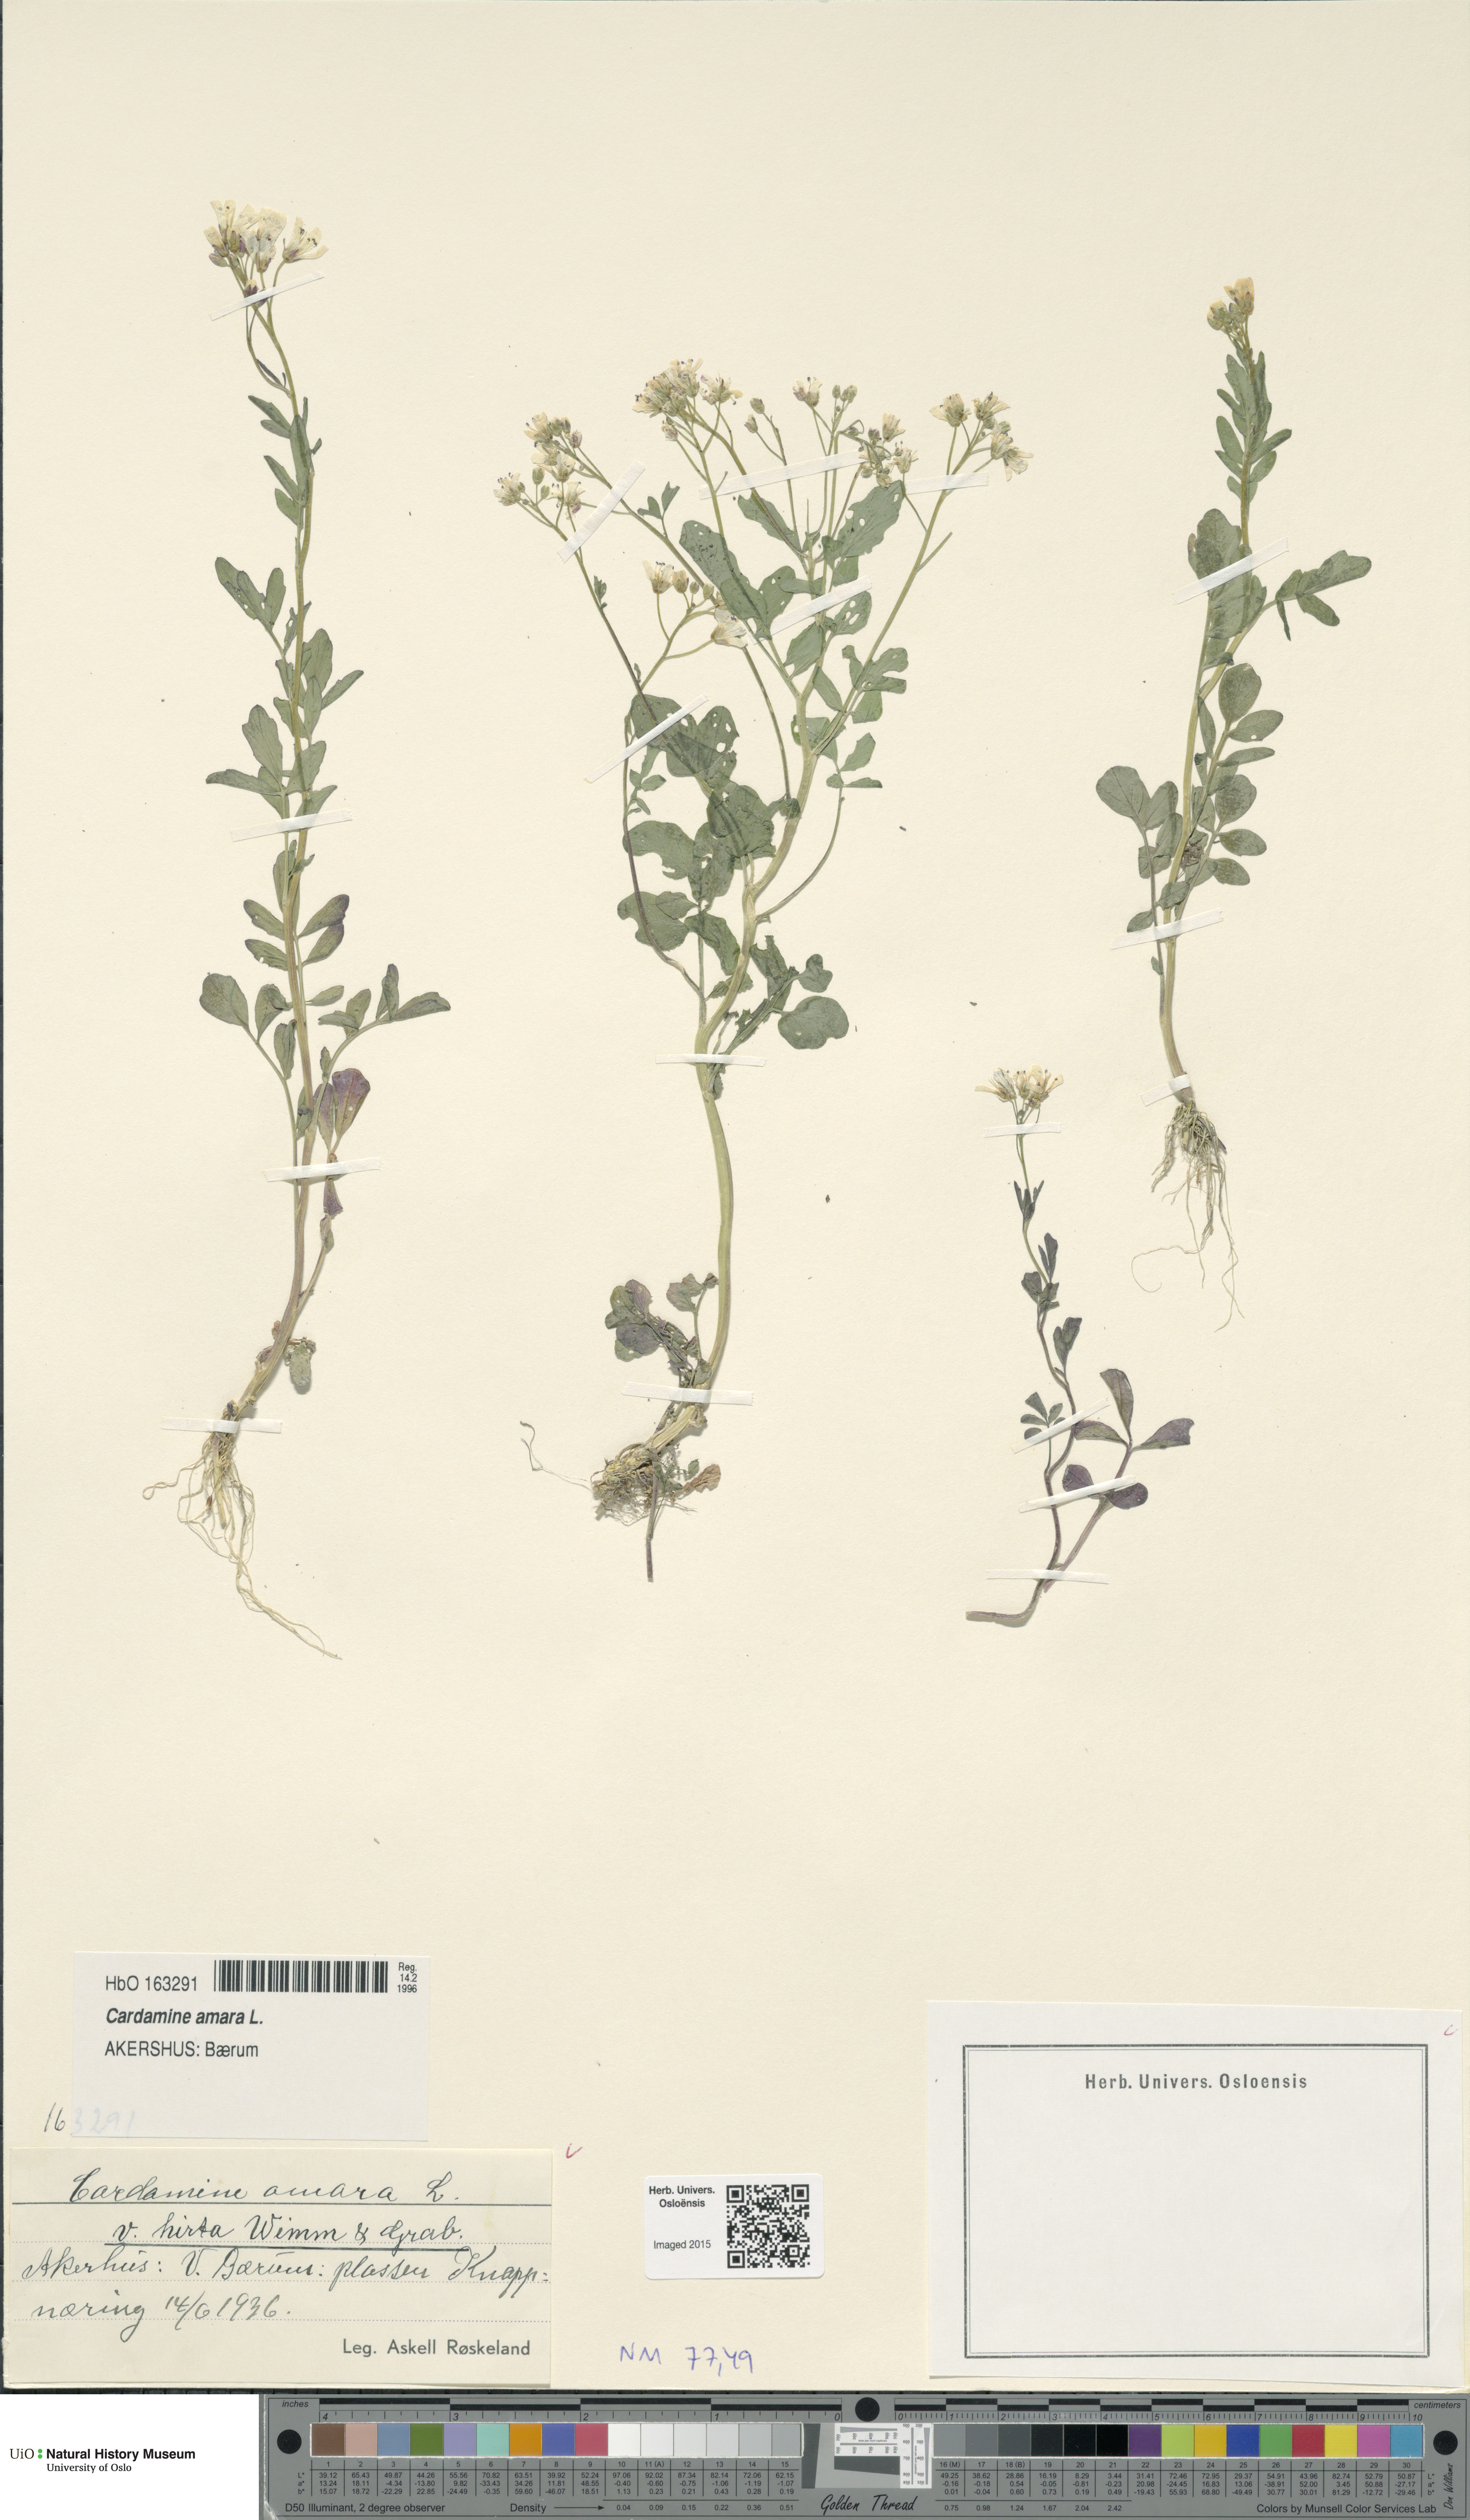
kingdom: Plantae
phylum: Tracheophyta
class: Magnoliopsida
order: Brassicales
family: Brassicaceae
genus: Cardamine
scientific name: Cardamine amara
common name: Large bitter-cress
